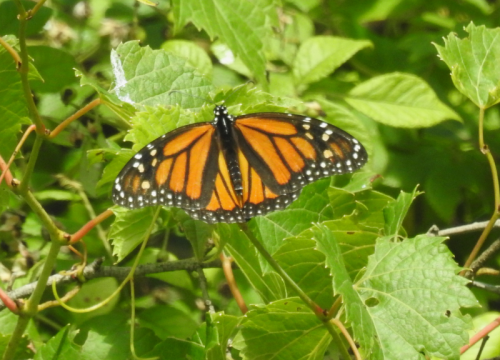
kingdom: Animalia
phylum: Arthropoda
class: Insecta
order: Lepidoptera
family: Nymphalidae
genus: Danaus
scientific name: Danaus plexippus
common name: Monarch
